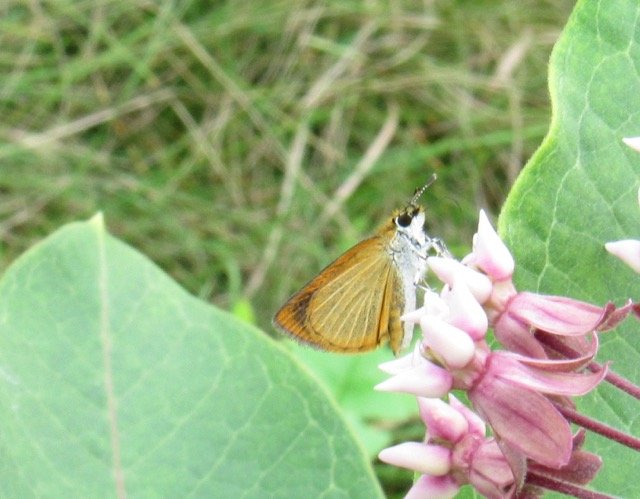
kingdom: Animalia
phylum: Arthropoda
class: Insecta
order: Lepidoptera
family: Hesperiidae
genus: Ancyloxypha
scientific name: Ancyloxypha numitor
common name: Least Skipper
